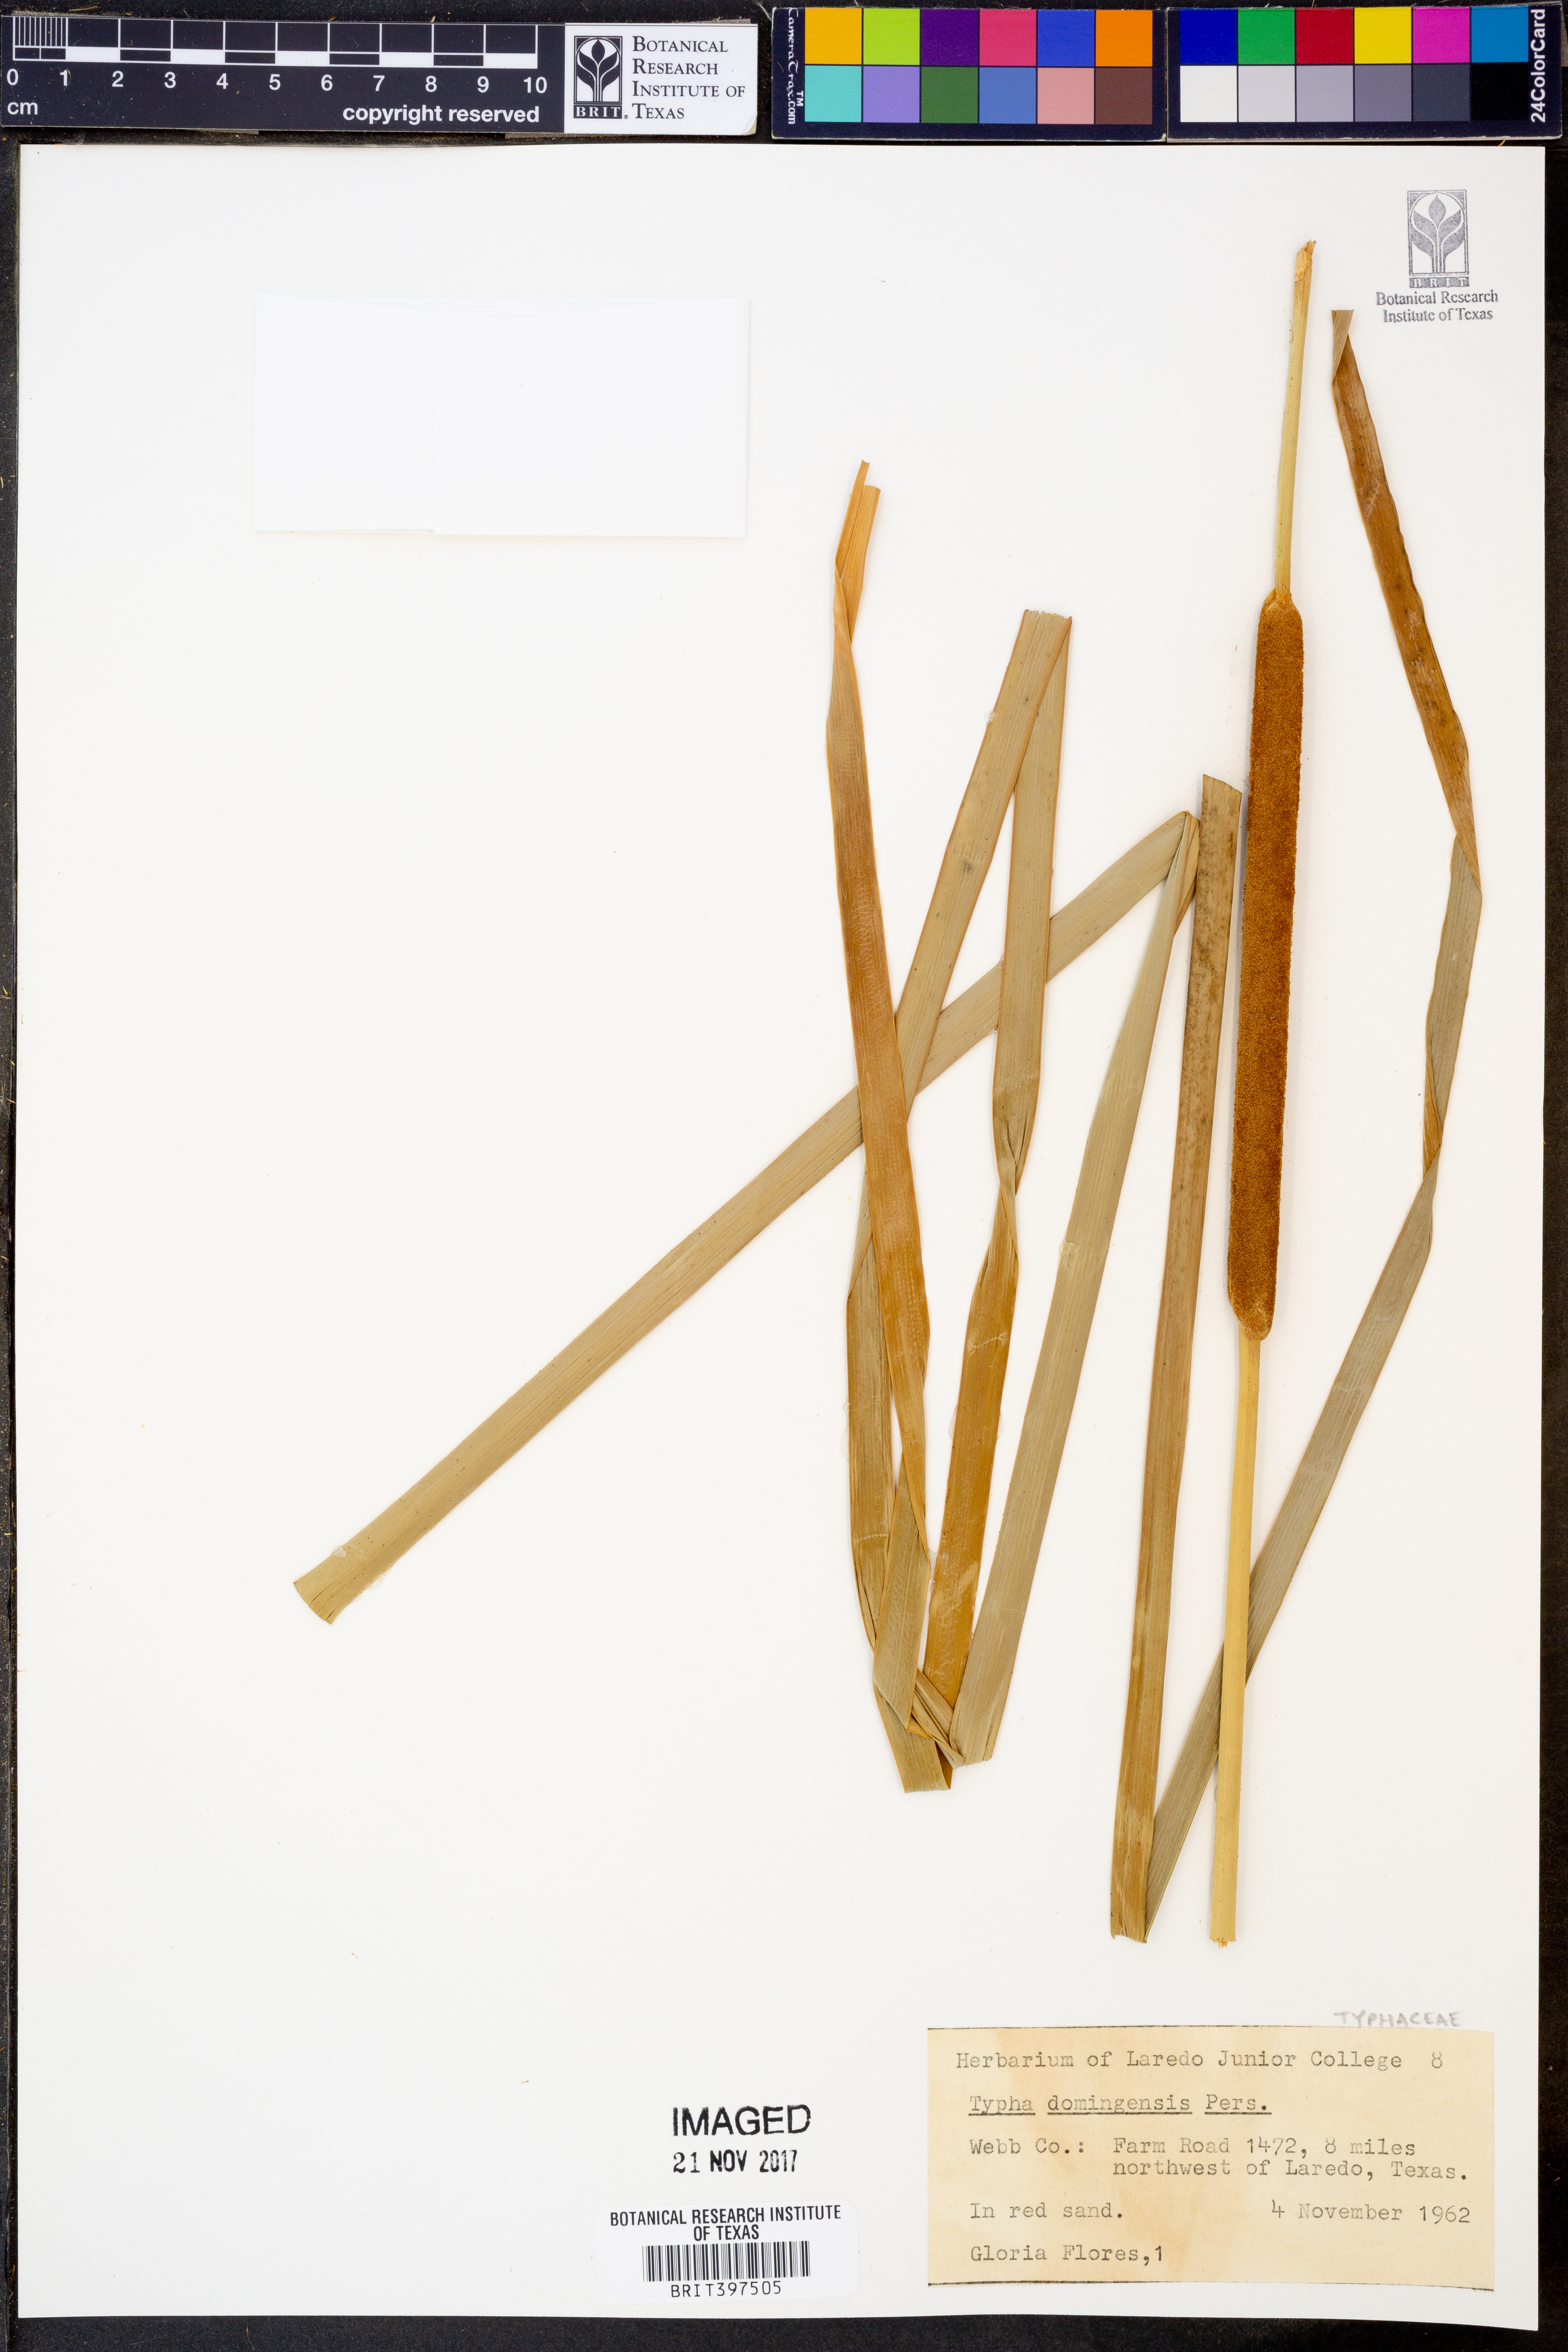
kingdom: Plantae
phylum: Tracheophyta
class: Liliopsida
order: Poales
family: Typhaceae
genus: Typha
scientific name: Typha domingensis
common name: Southern cattail
